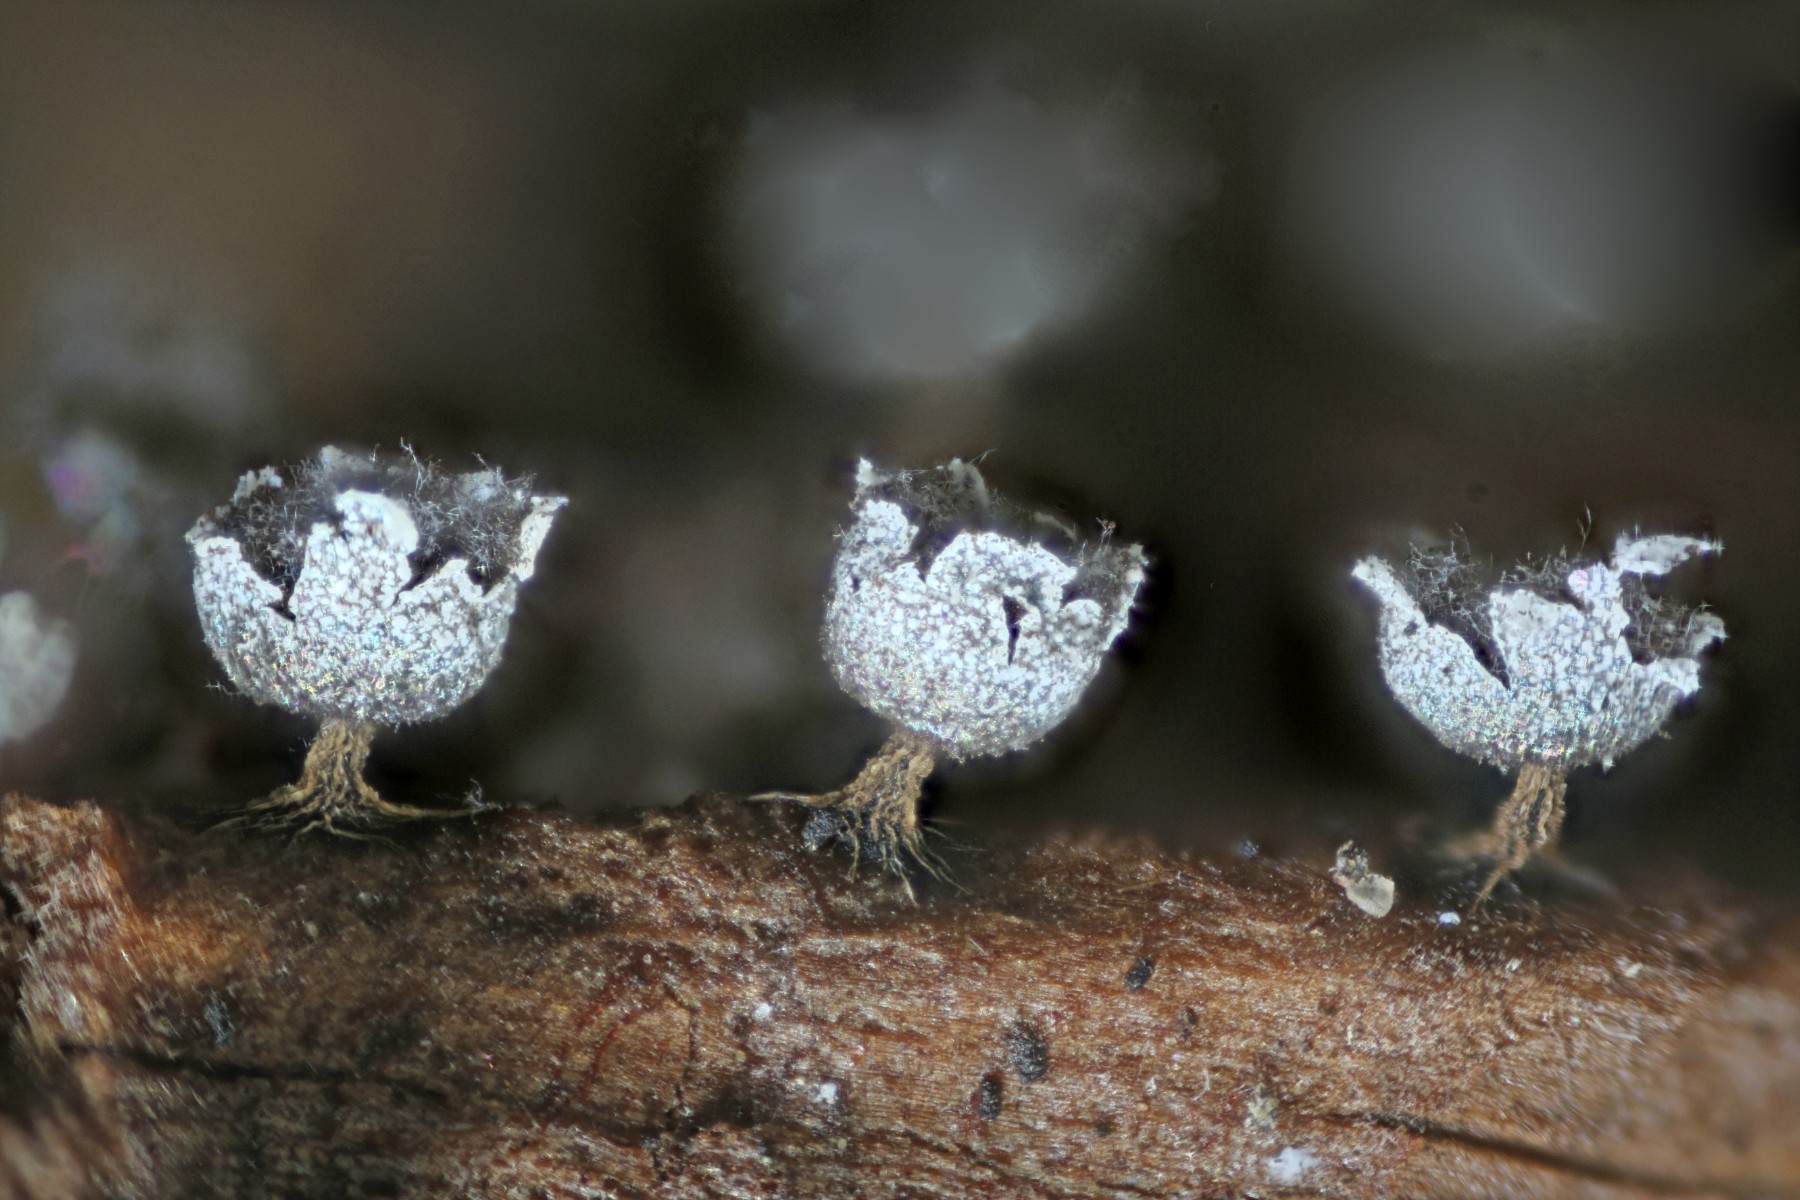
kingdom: Protozoa
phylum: Mycetozoa
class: Myxomycetes
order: Physarales
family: Physaraceae
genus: Physarum
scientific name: Physarum robustum
